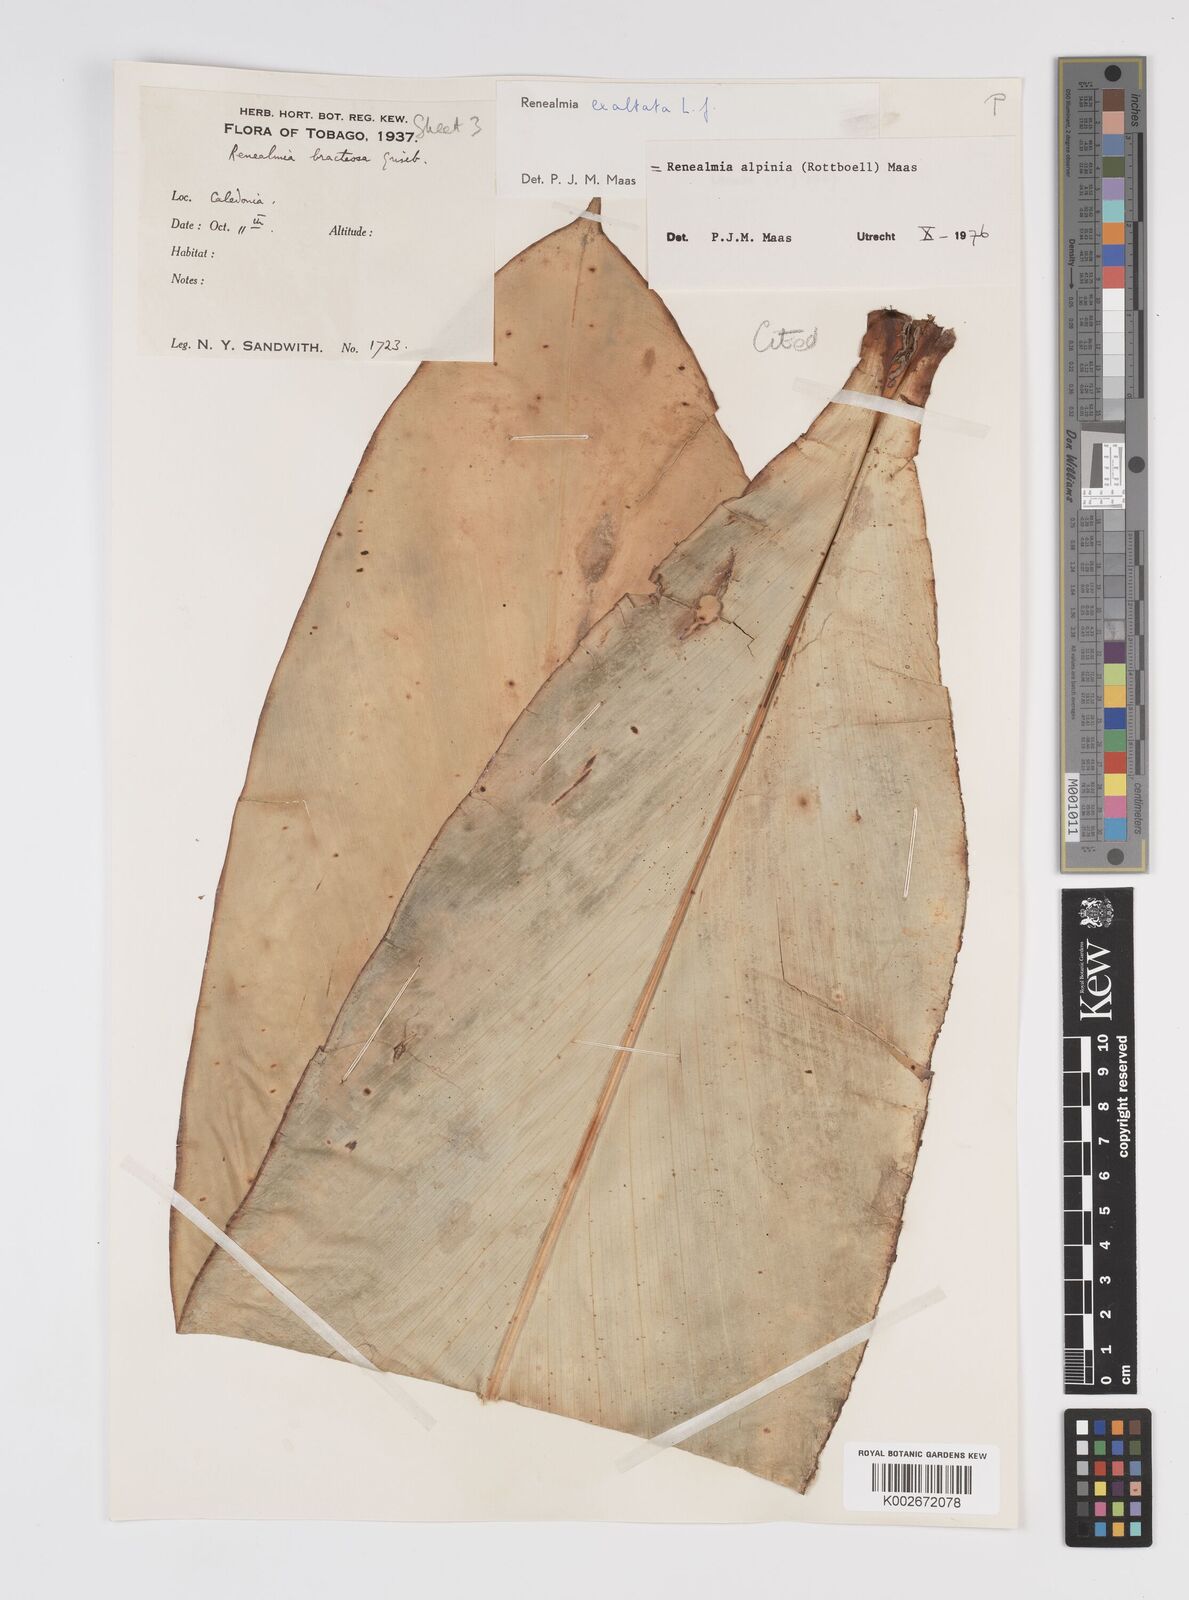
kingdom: Plantae
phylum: Tracheophyta
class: Liliopsida
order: Zingiberales
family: Zingiberaceae
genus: Renealmia
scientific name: Renealmia alpinia
